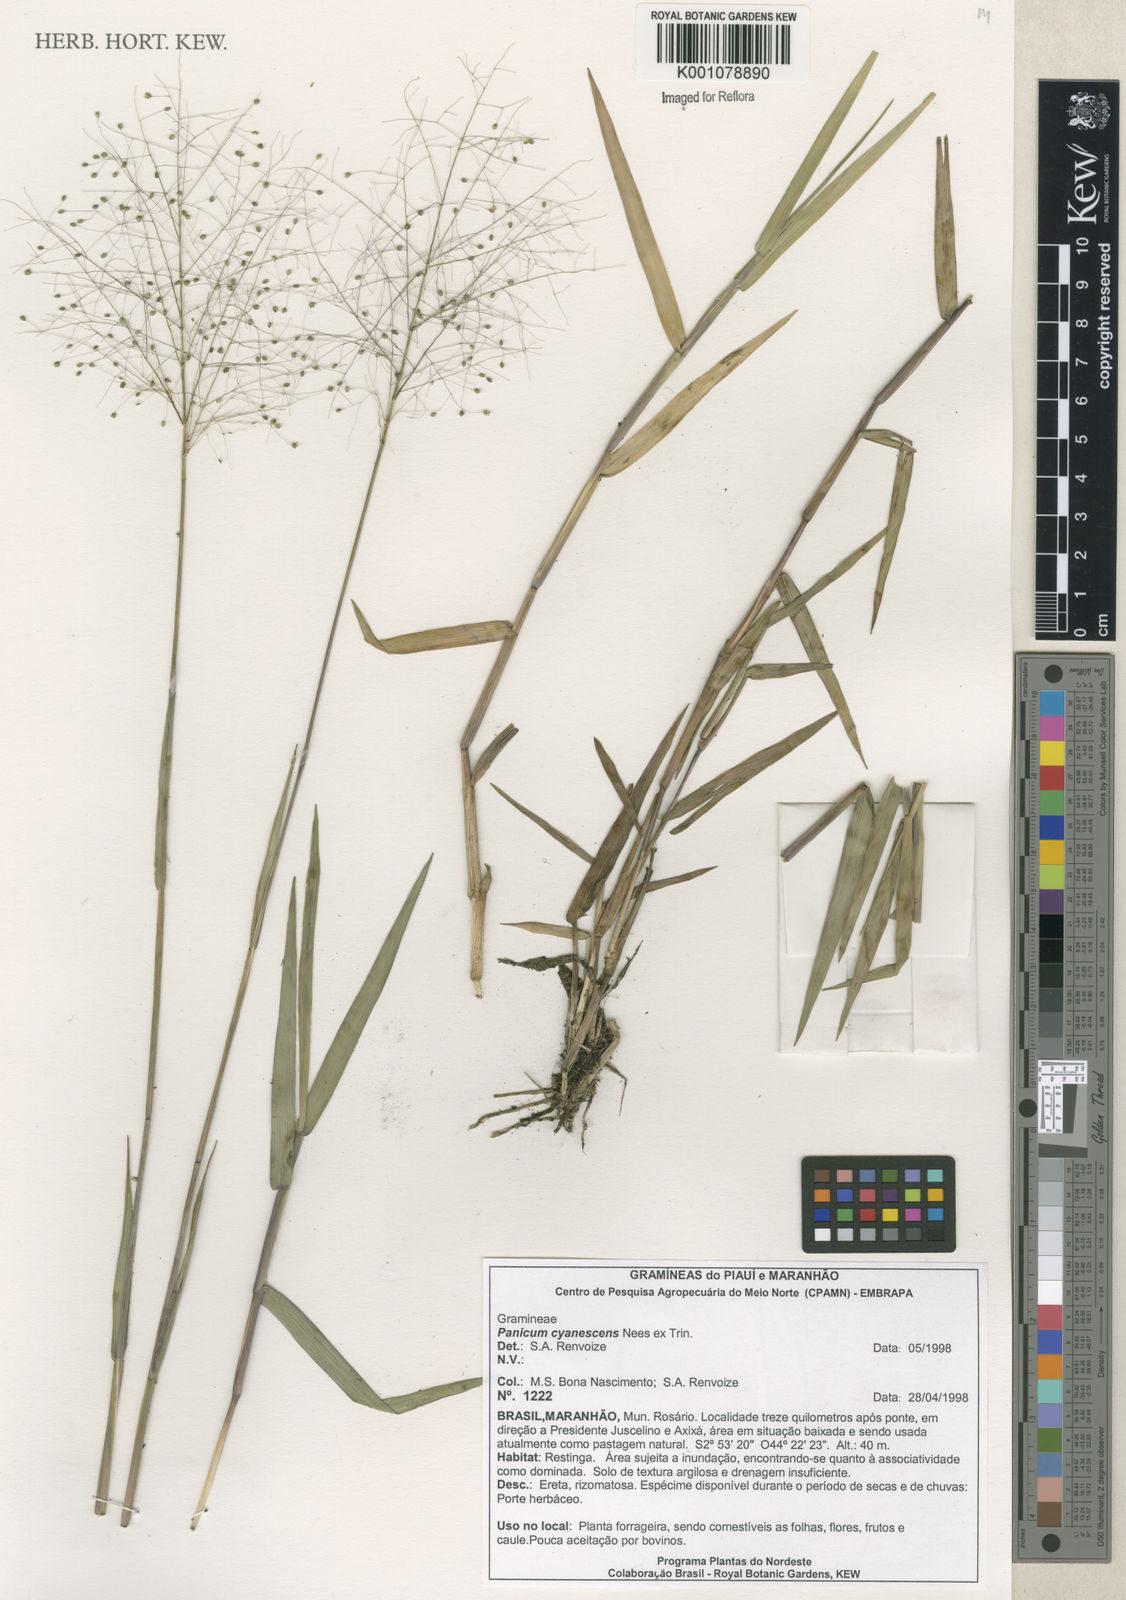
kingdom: Plantae
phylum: Tracheophyta
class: Liliopsida
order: Poales
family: Poaceae
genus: Trichanthecium
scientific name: Trichanthecium cyanescens
